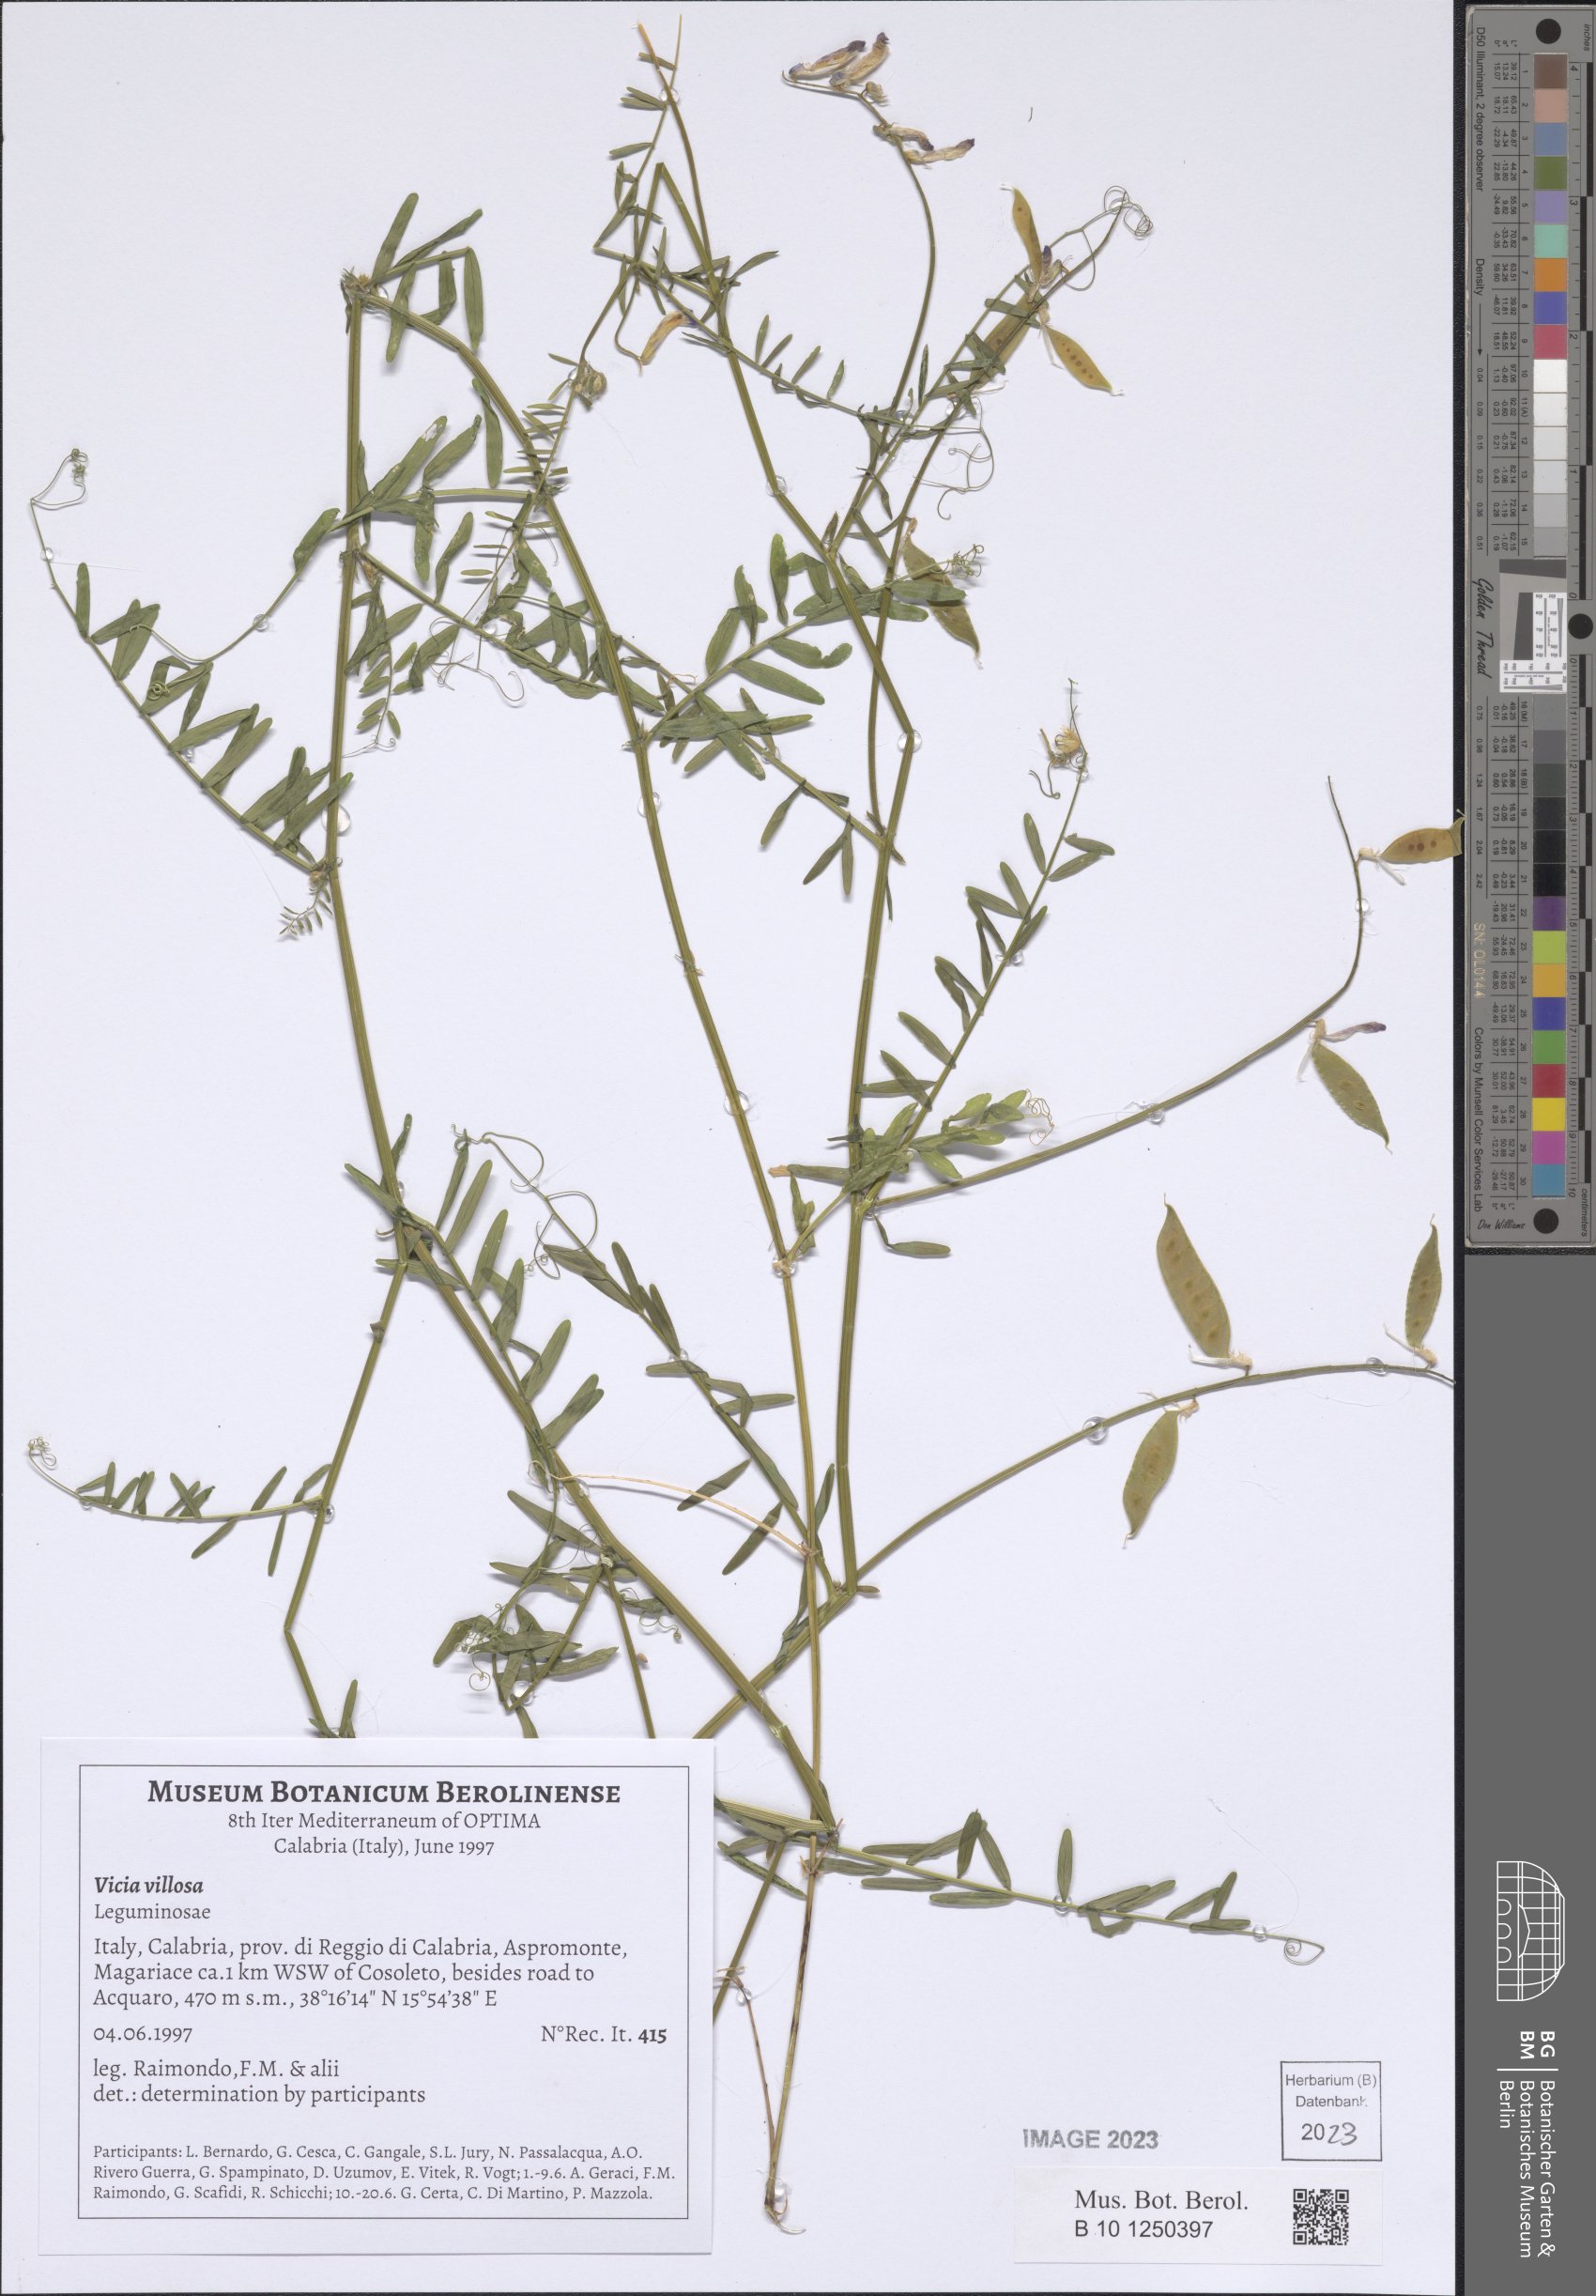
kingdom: Plantae
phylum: Tracheophyta
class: Magnoliopsida
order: Fabales
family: Fabaceae
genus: Vicia
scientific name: Vicia villosa
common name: Fodder vetch
